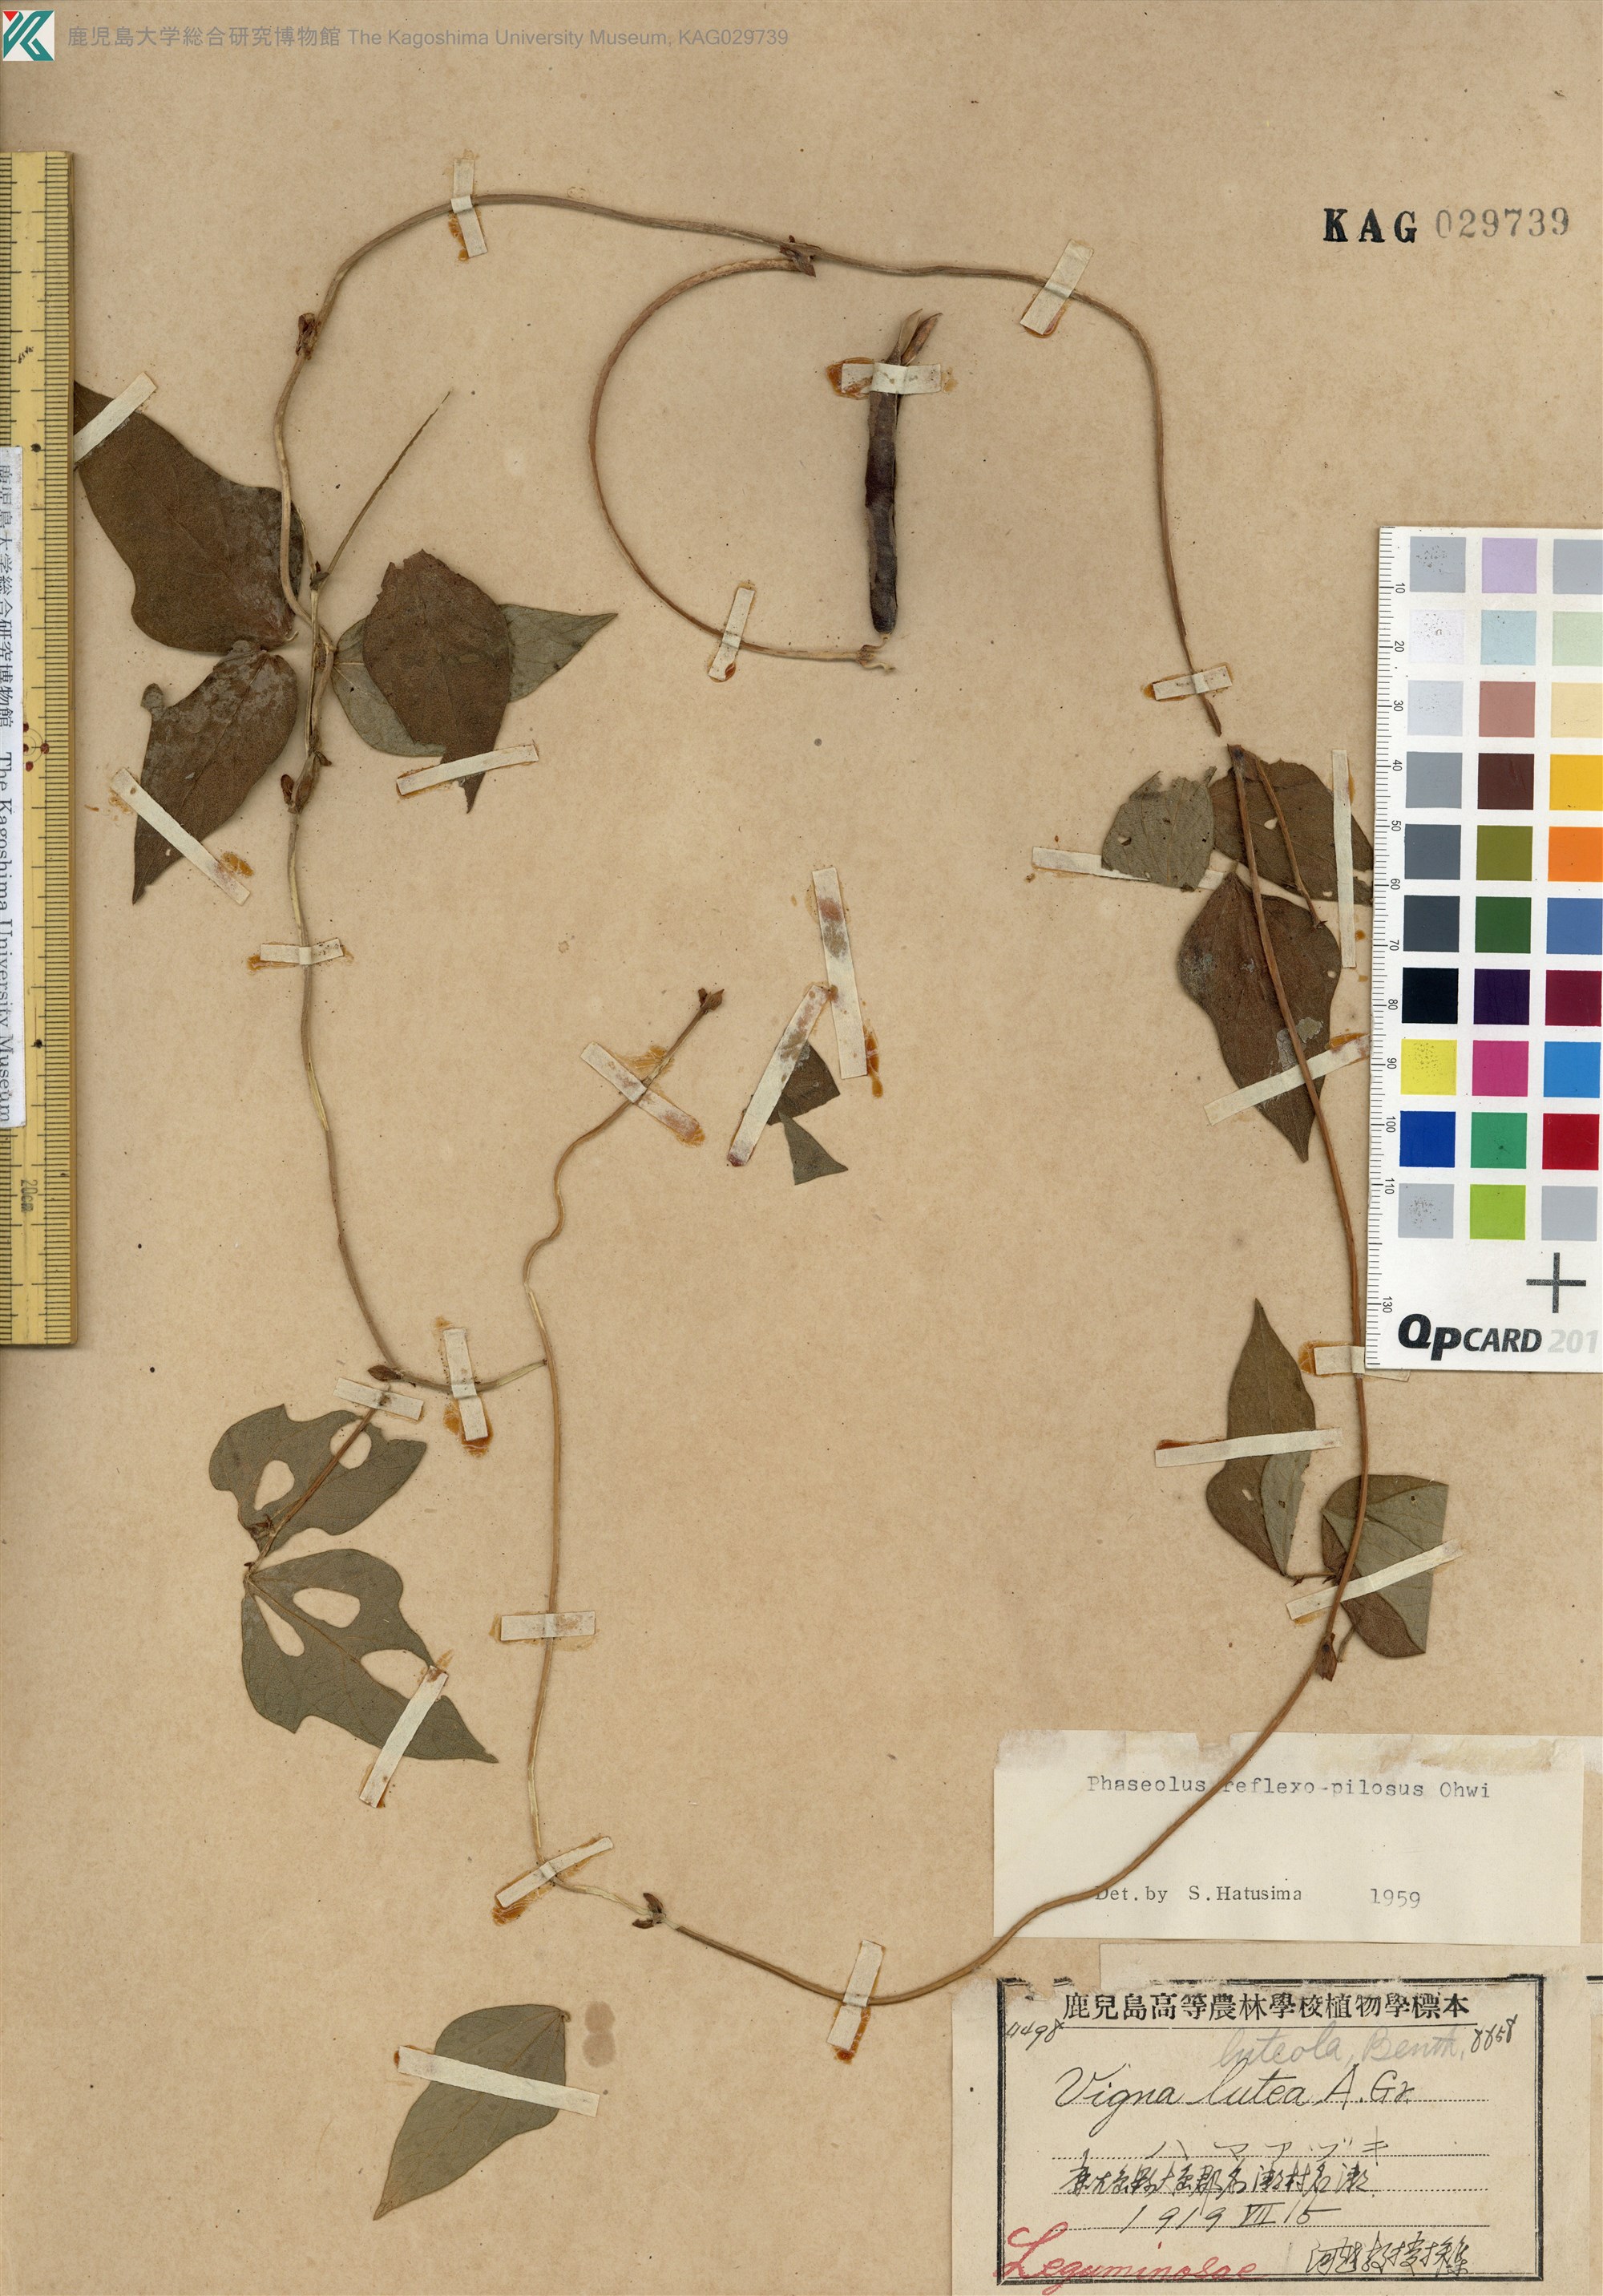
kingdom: Plantae
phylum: Tracheophyta
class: Magnoliopsida
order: Fabales
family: Fabaceae
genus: Vigna
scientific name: Vigna reflexopilosa
